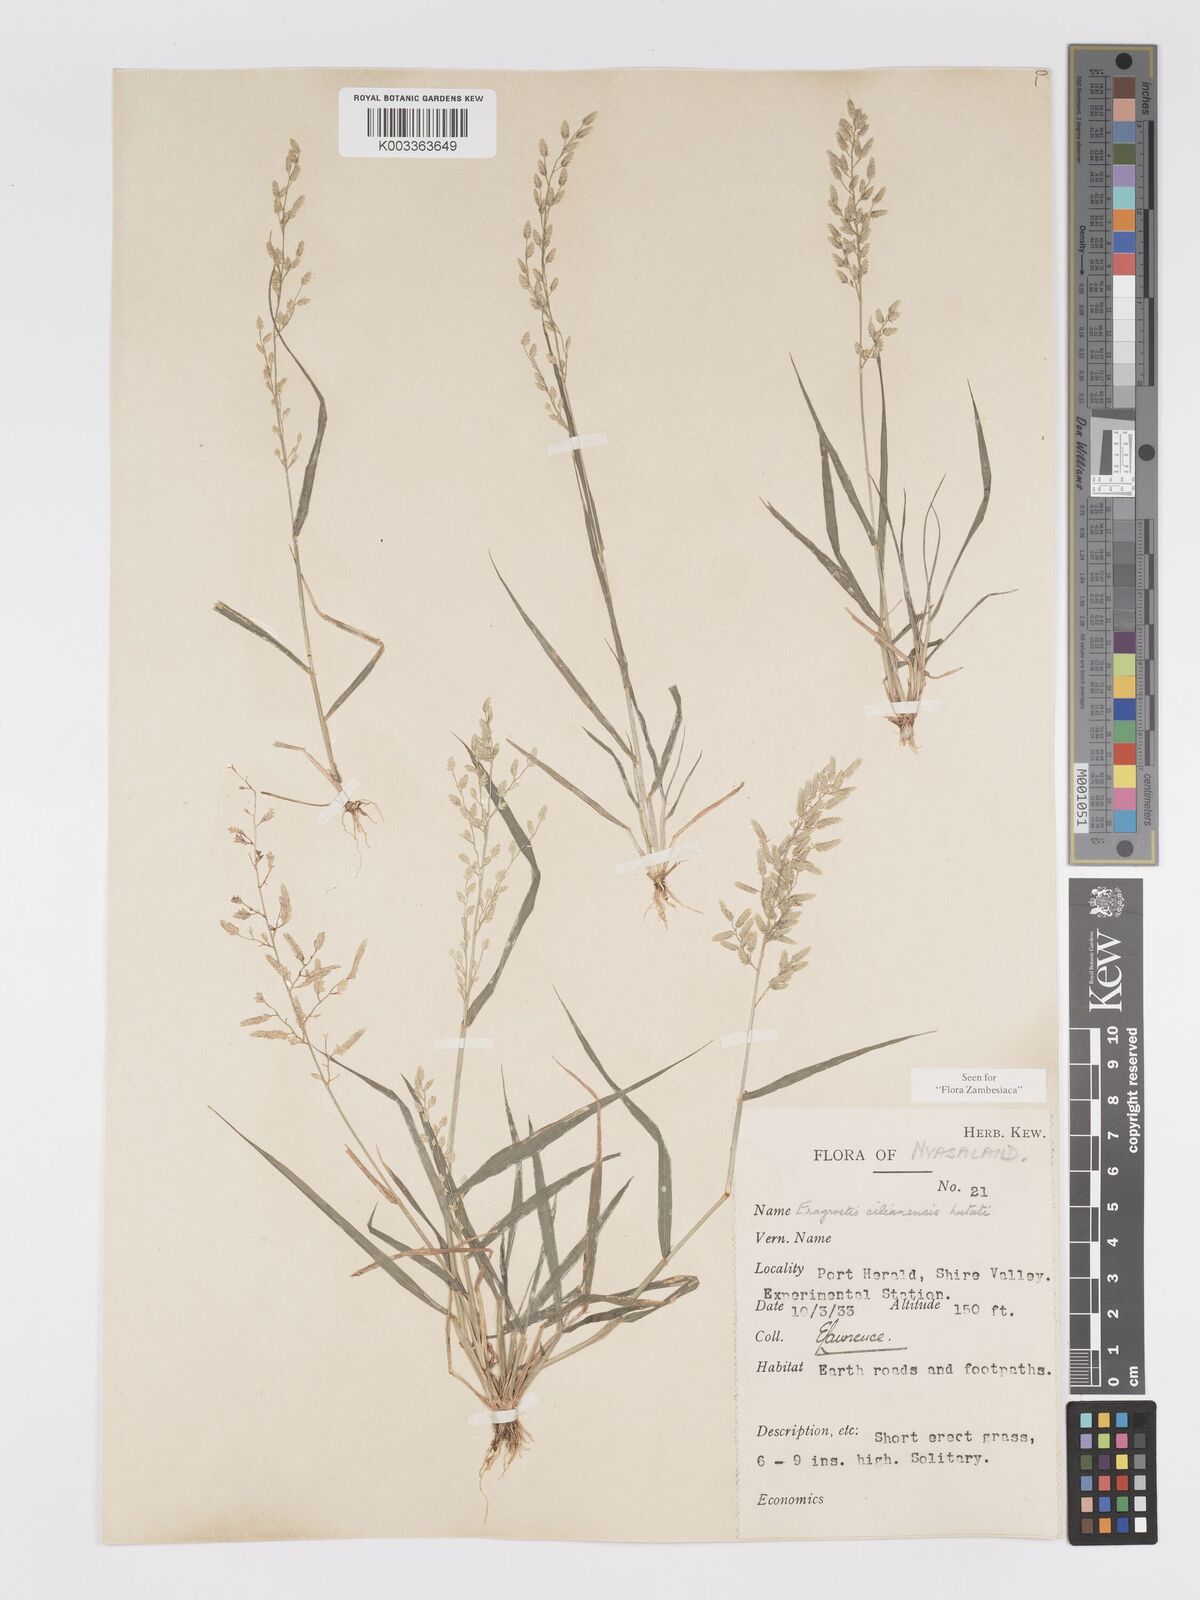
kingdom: Plantae
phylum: Tracheophyta
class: Liliopsida
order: Poales
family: Poaceae
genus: Eragrostis
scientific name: Eragrostis cilianensis
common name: Stinkgrass
